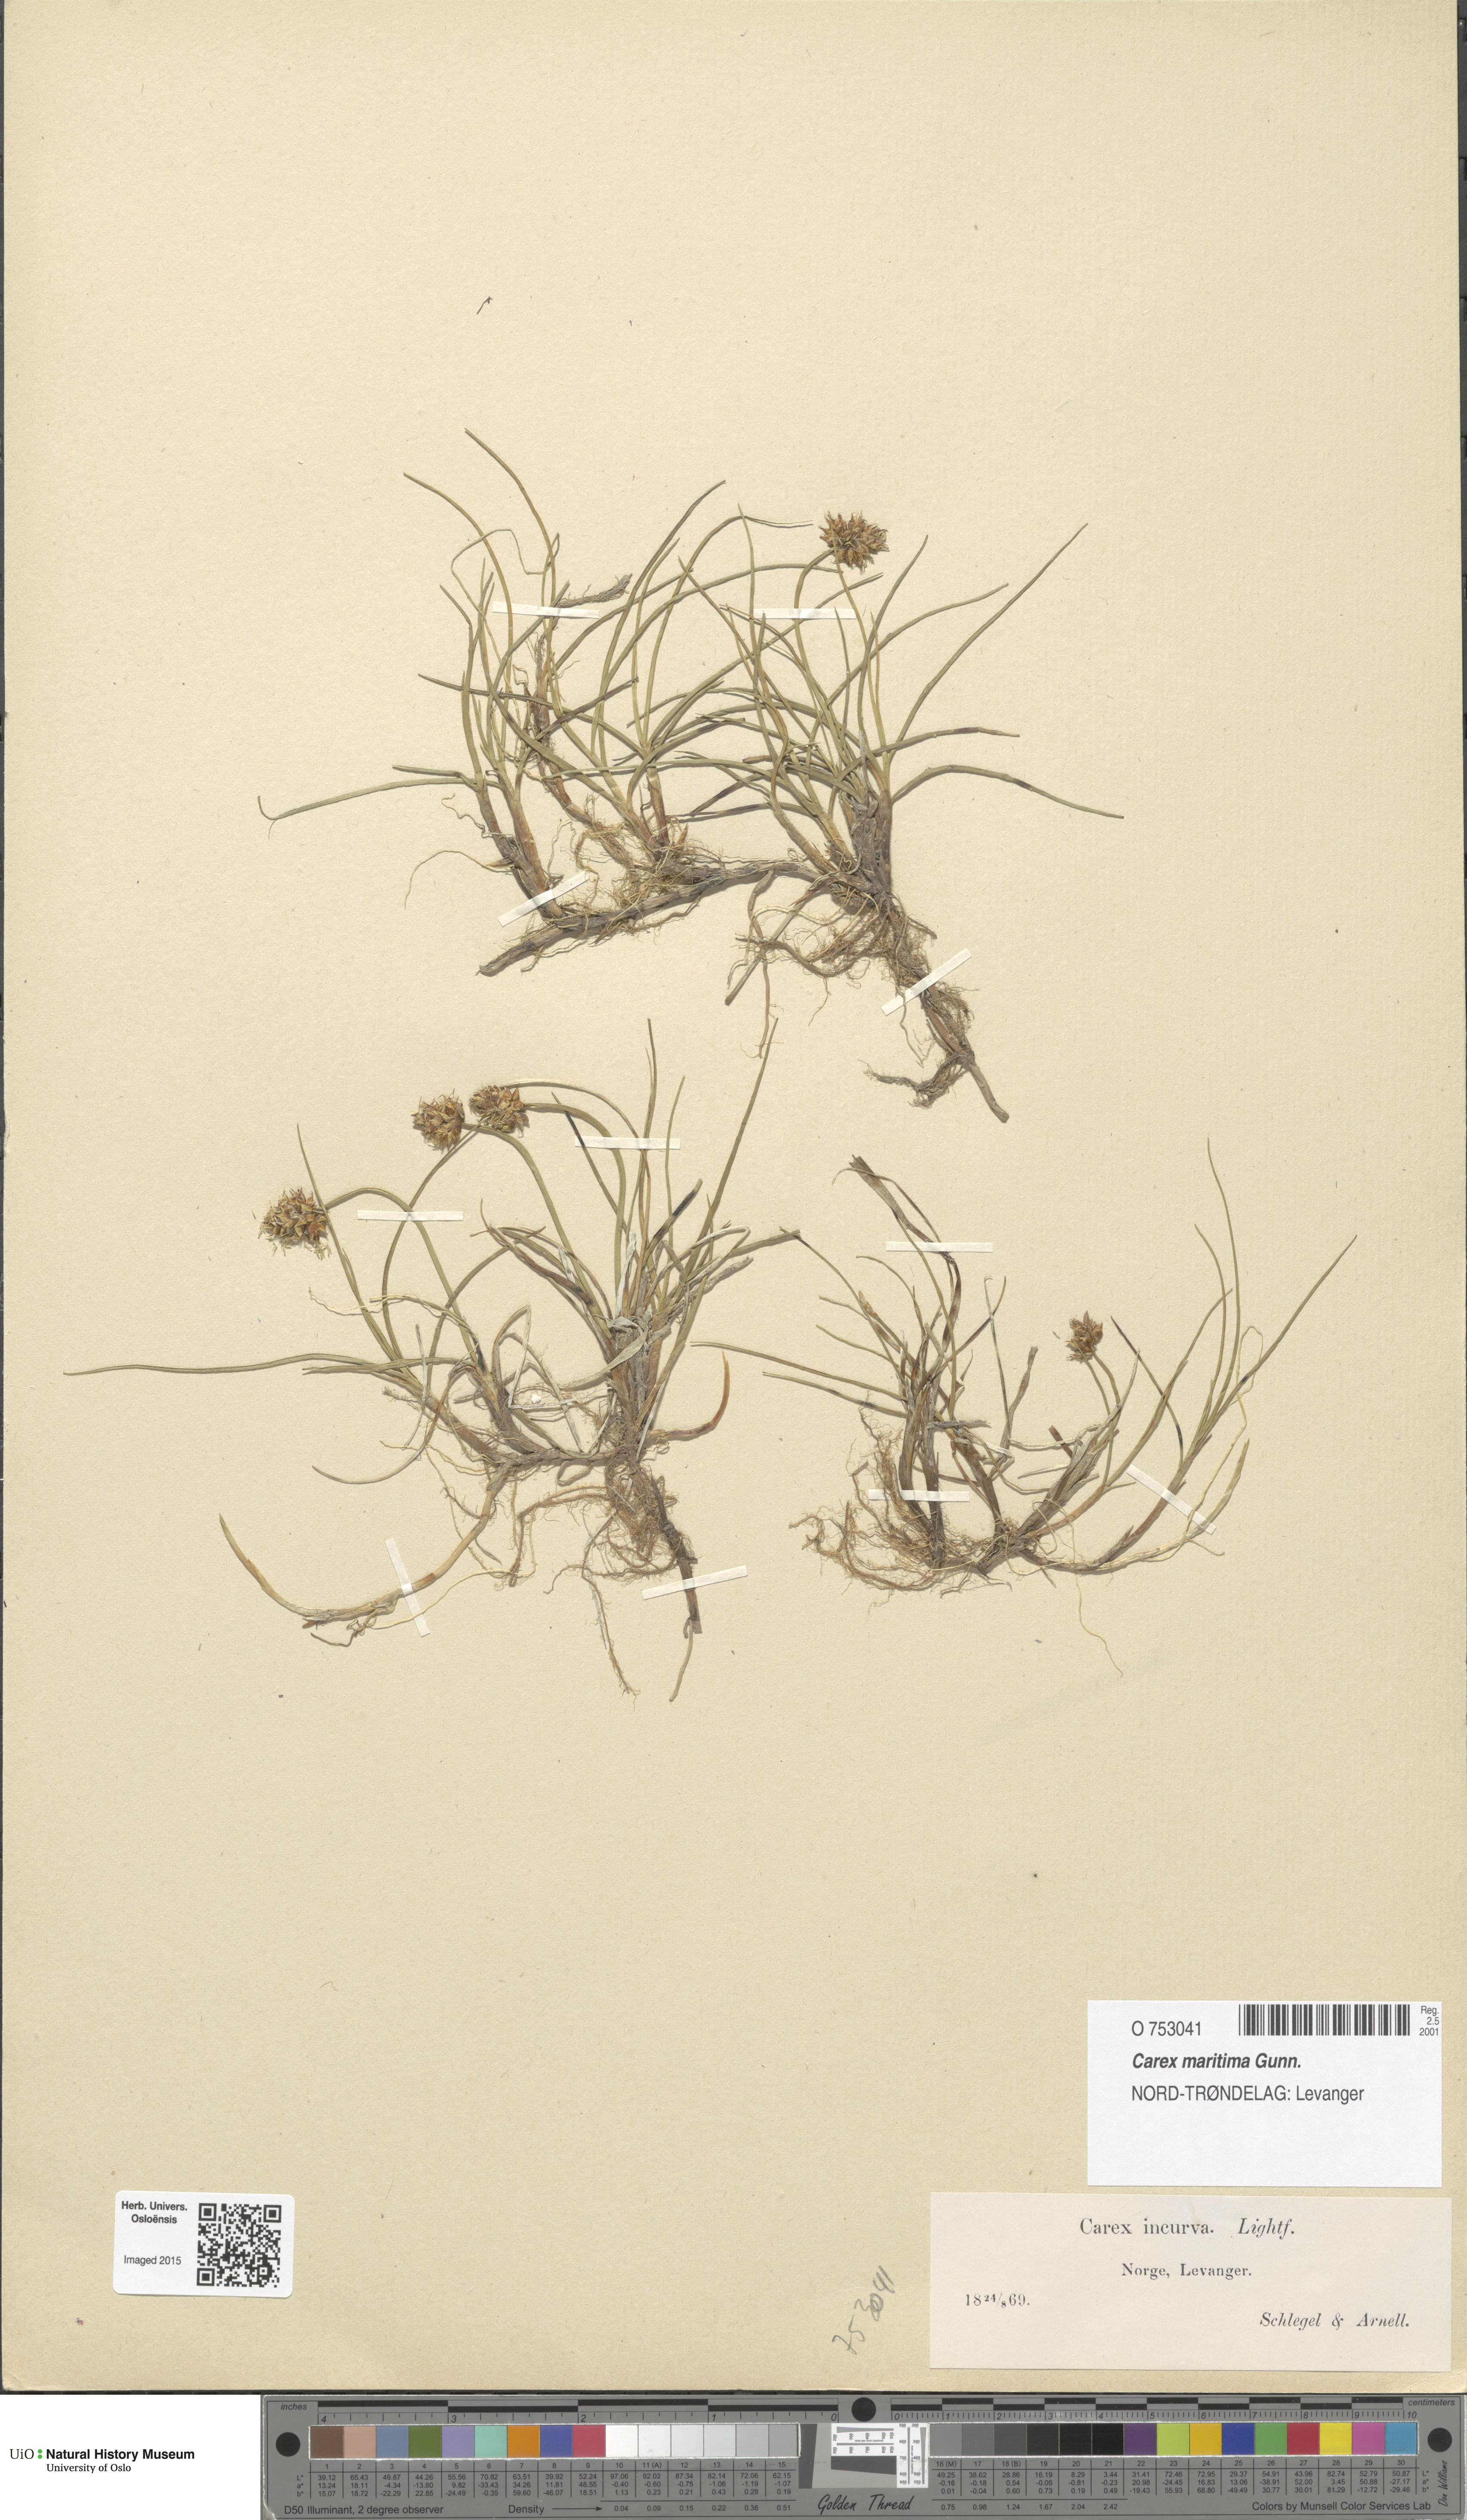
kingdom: Plantae
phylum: Tracheophyta
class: Liliopsida
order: Poales
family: Cyperaceae
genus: Carex
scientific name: Carex maritima
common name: Curved sedge
